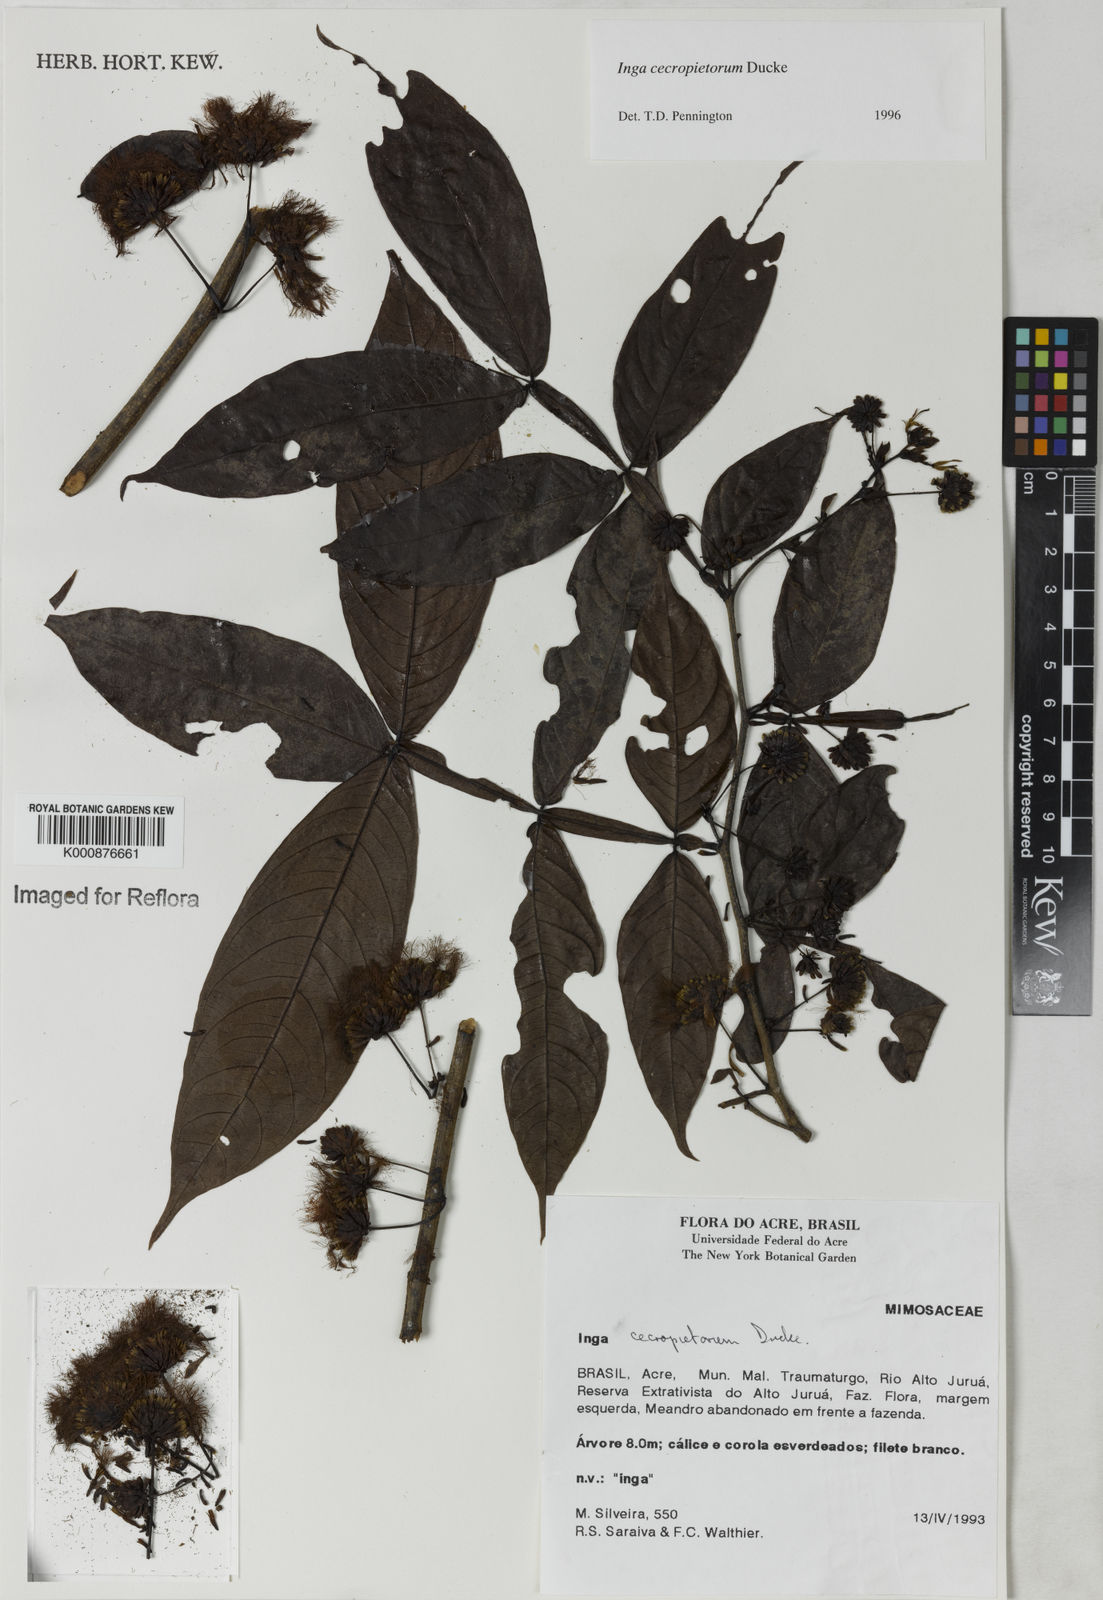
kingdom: Plantae
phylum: Tracheophyta
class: Magnoliopsida
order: Fabales
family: Fabaceae
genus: Inga
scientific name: Inga cecropietorum
